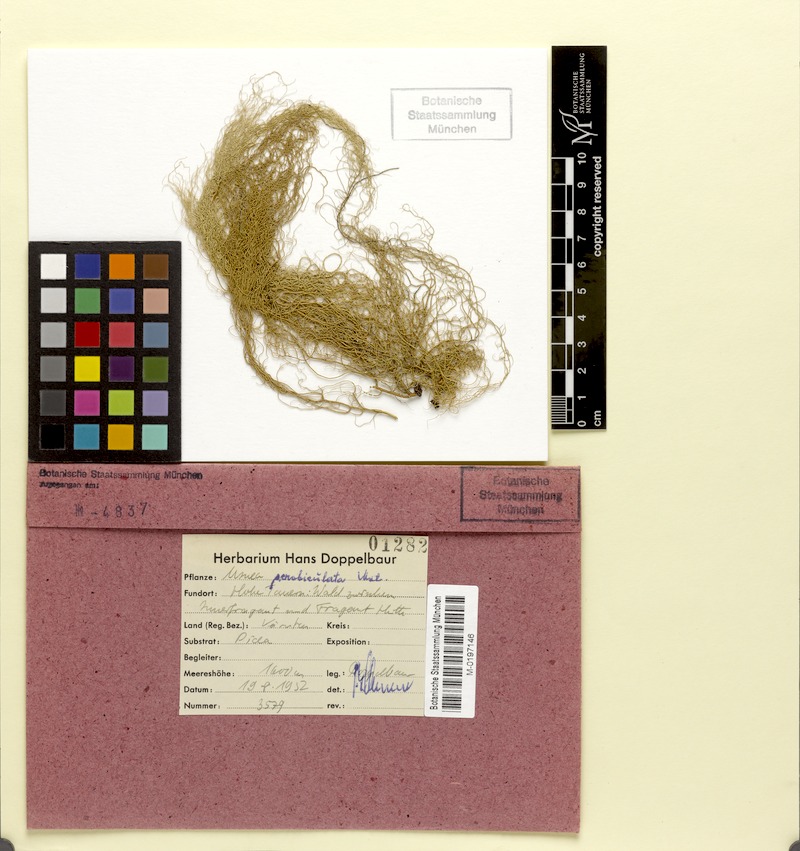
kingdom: Fungi
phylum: Ascomycota
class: Lecanoromycetes
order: Lecanorales
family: Parmeliaceae
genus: Usnea
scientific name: Usnea barbata
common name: Old man's beard lichen
